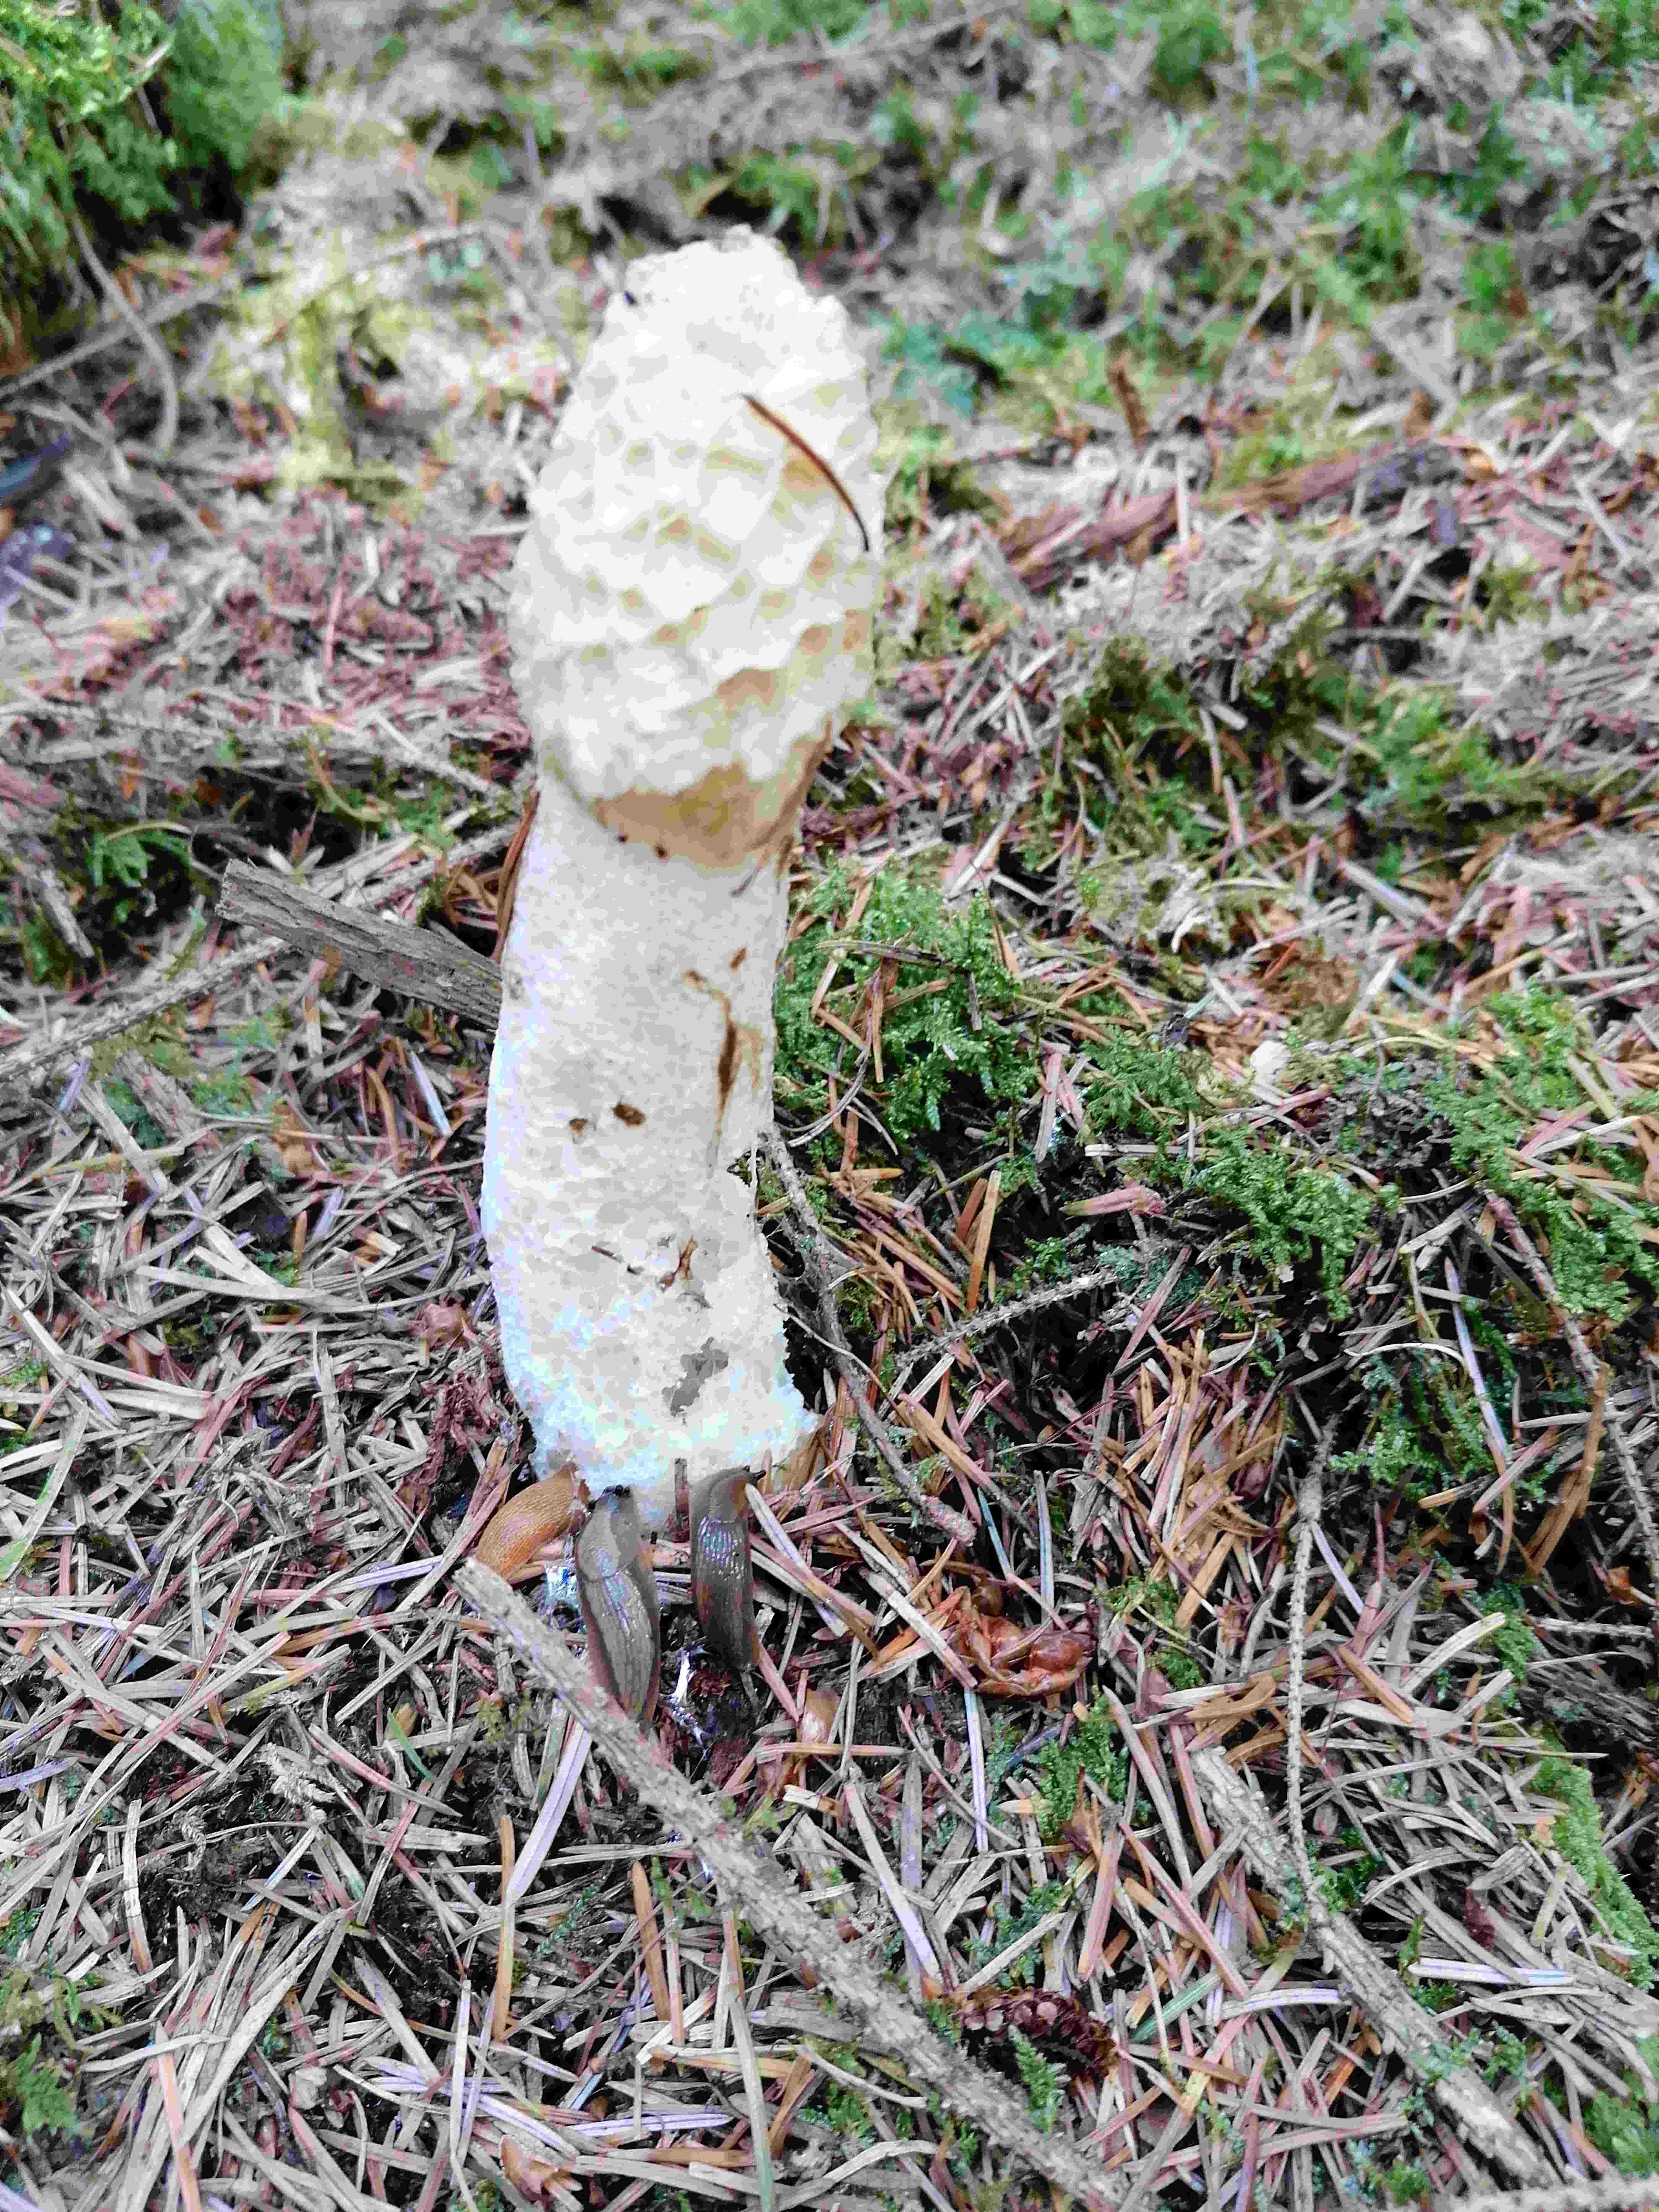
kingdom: Fungi
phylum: Basidiomycota
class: Agaricomycetes
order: Phallales
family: Phallaceae
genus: Phallus
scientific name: Phallus impudicus
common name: almindelig stinksvamp
